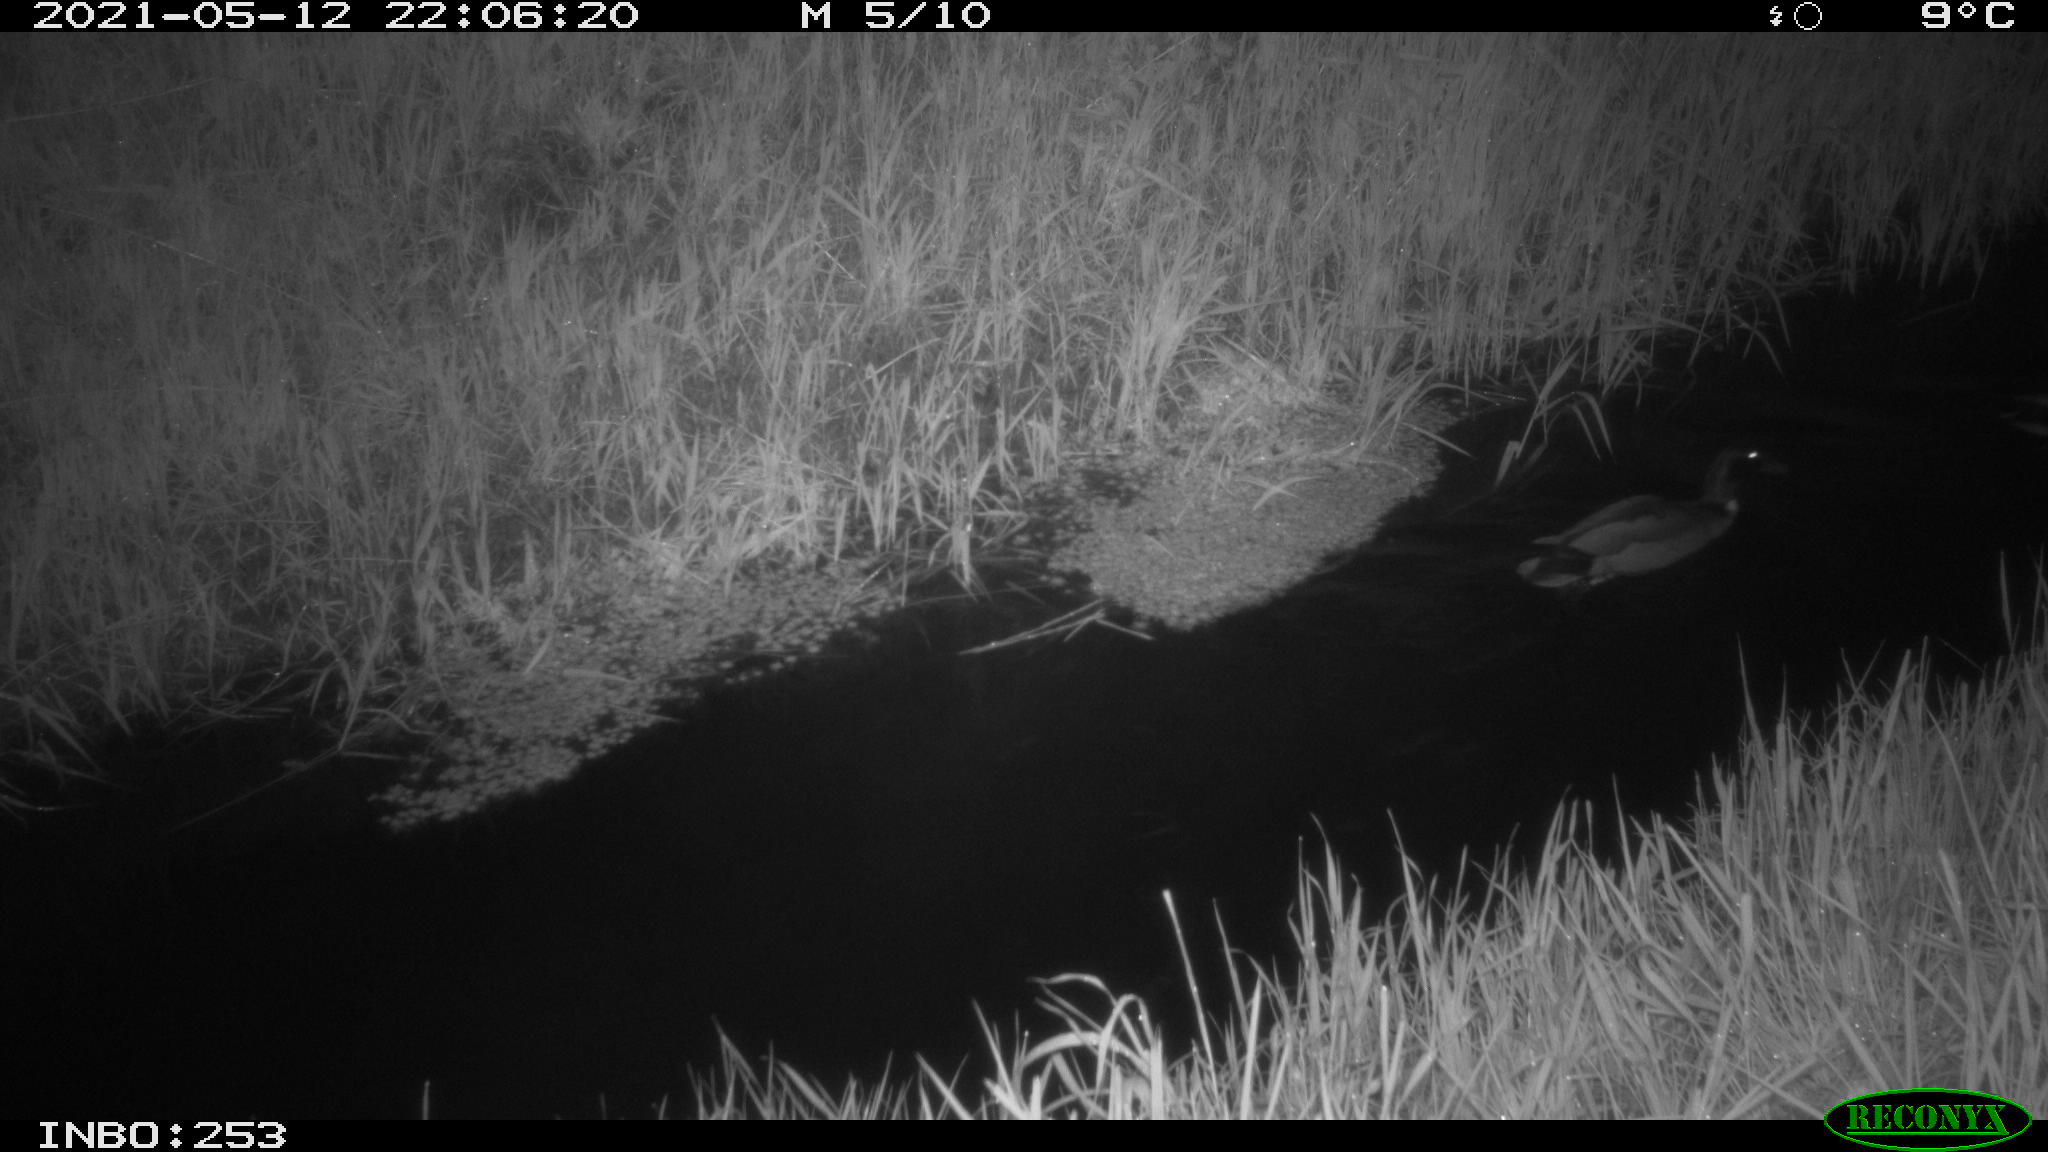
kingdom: Animalia
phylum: Chordata
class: Aves
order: Anseriformes
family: Anatidae
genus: Anas
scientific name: Anas platyrhynchos
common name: Mallard
